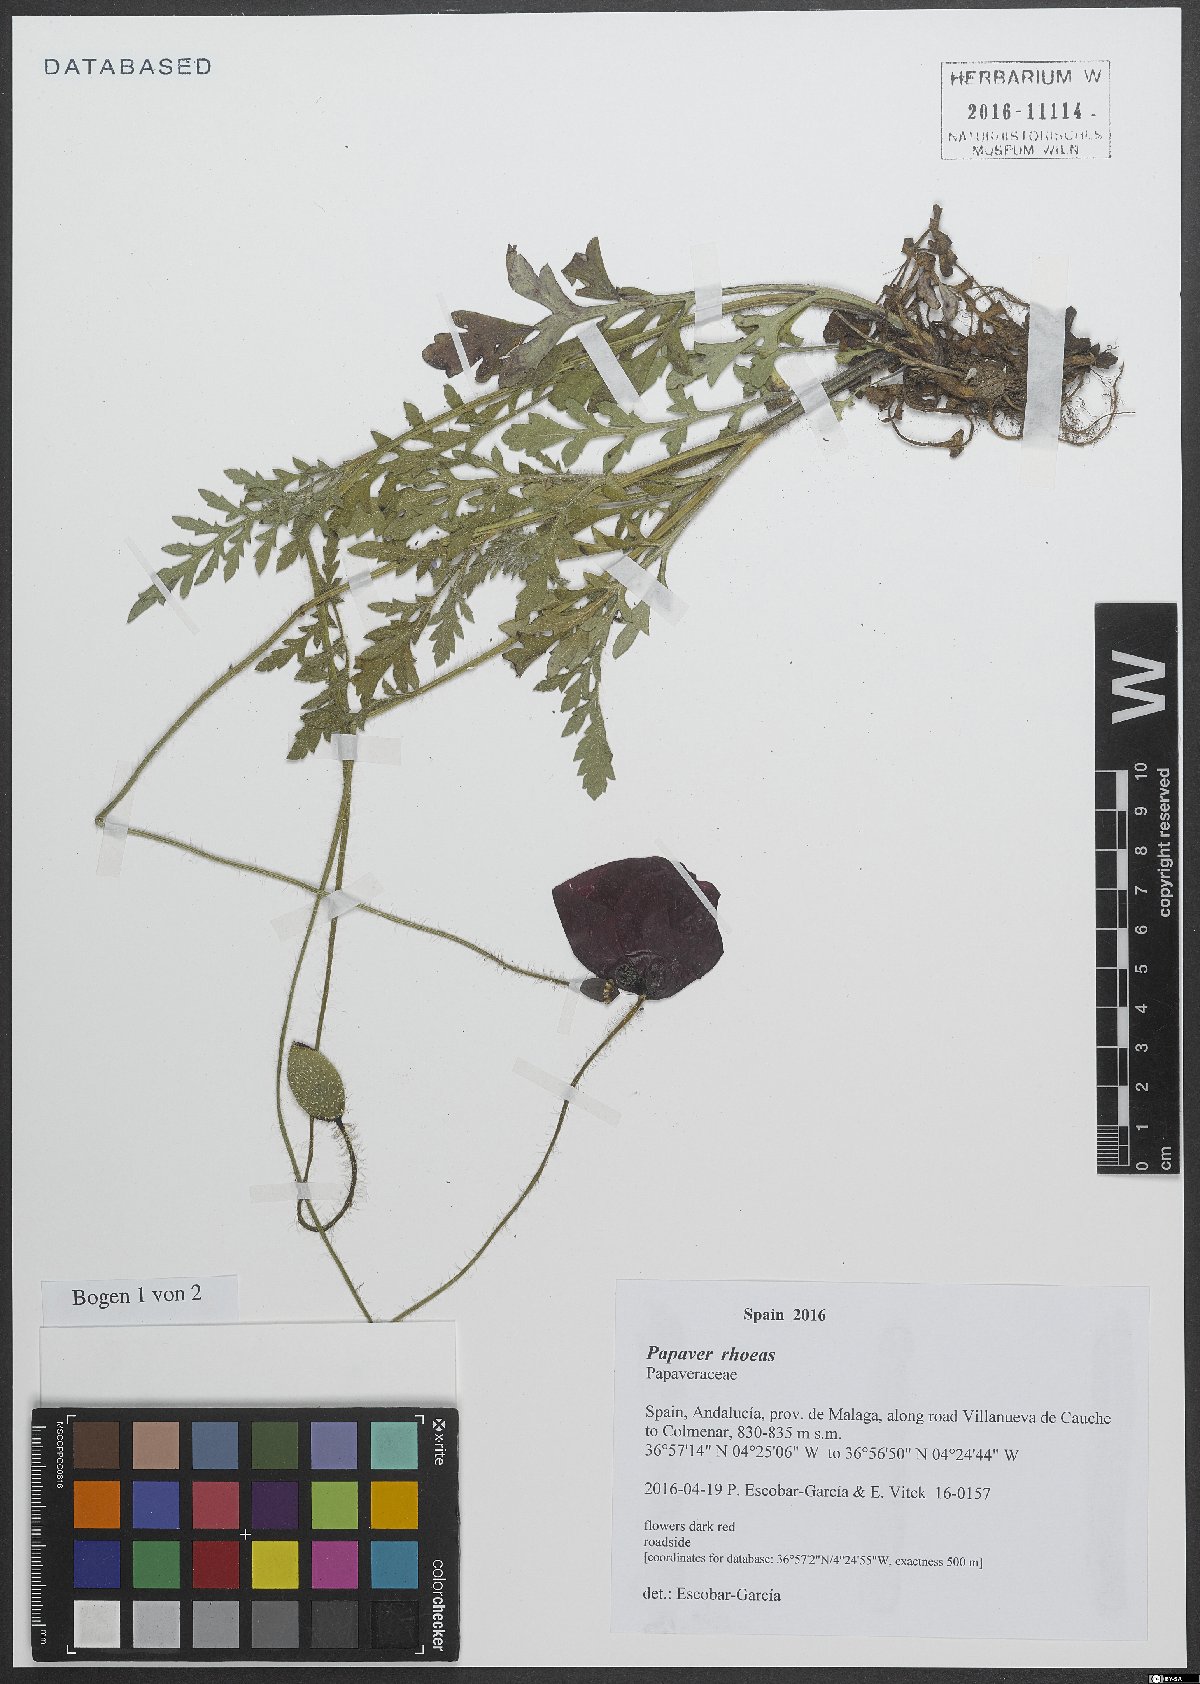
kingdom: Plantae
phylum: Tracheophyta
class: Magnoliopsida
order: Ranunculales
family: Papaveraceae
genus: Papaver
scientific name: Papaver rhoeas
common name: Corn poppy
